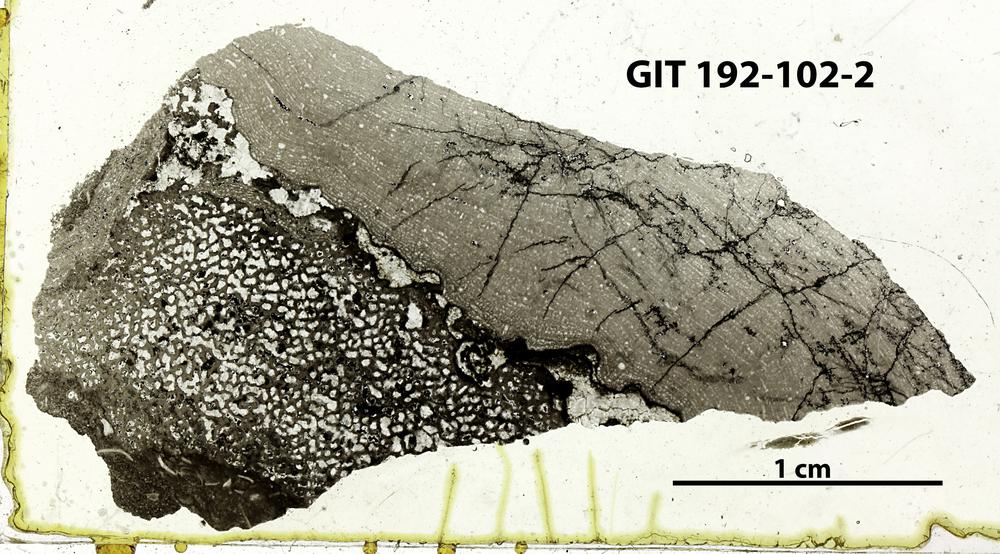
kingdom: Animalia
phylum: Porifera
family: Ecclimadictyidae
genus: Ecclimadictyon
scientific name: Ecclimadictyon
